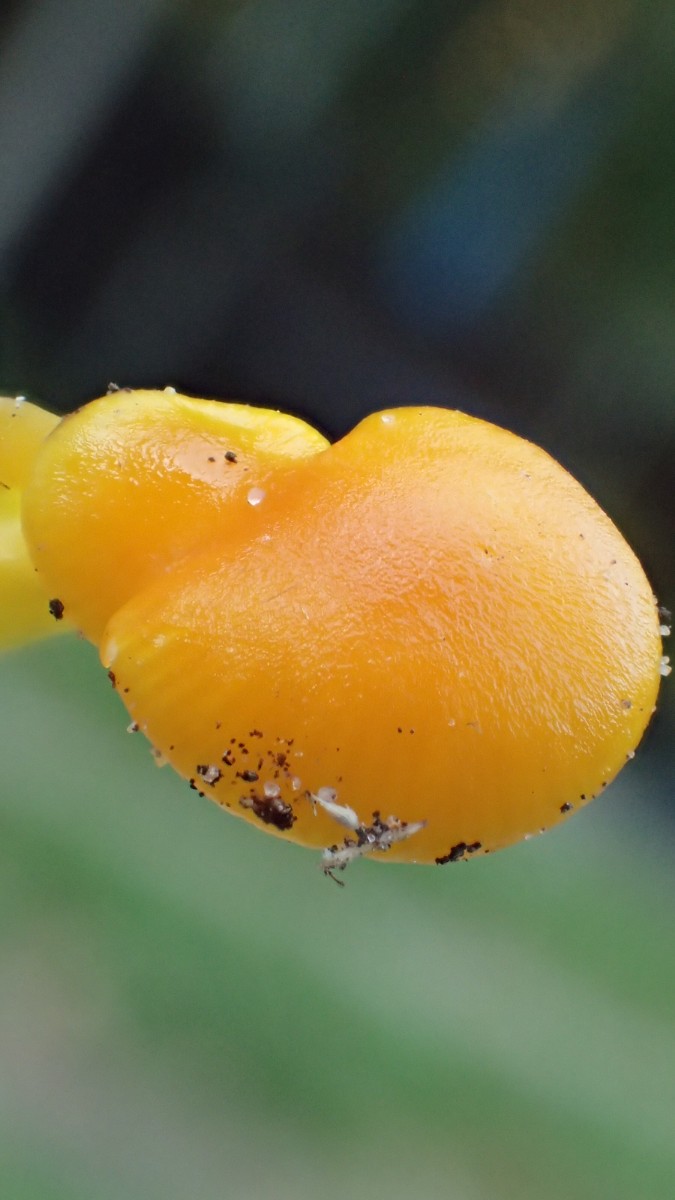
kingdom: Fungi
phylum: Basidiomycota
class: Agaricomycetes
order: Agaricales
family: Hygrophoraceae
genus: Hygrocybe
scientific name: Hygrocybe ceracea
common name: voksgul vokshat
